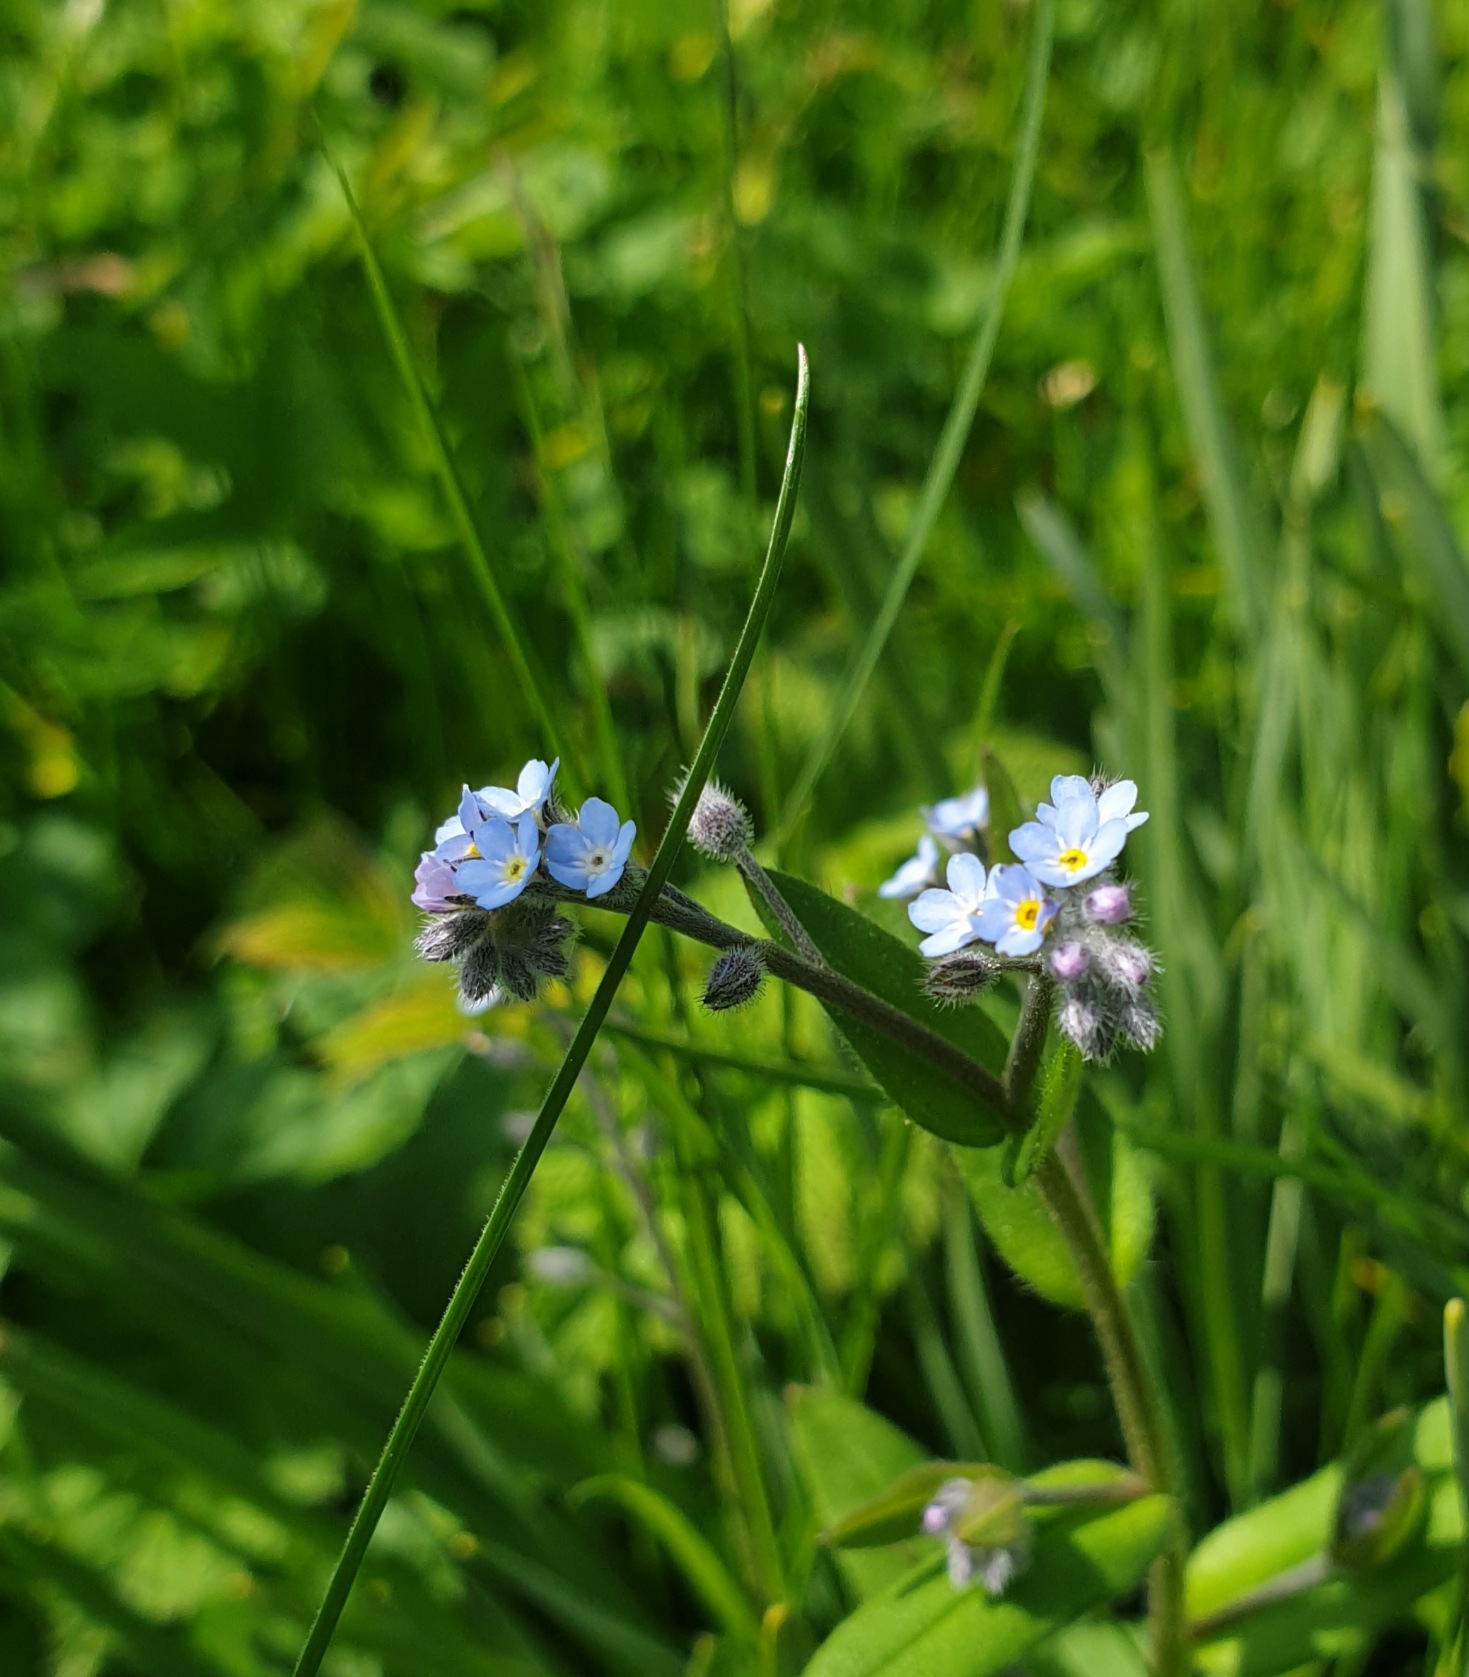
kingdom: Plantae
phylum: Tracheophyta
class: Magnoliopsida
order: Boraginales
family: Boraginaceae
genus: Myosotis
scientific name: Myosotis arvensis
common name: Mark-forglemmigej
